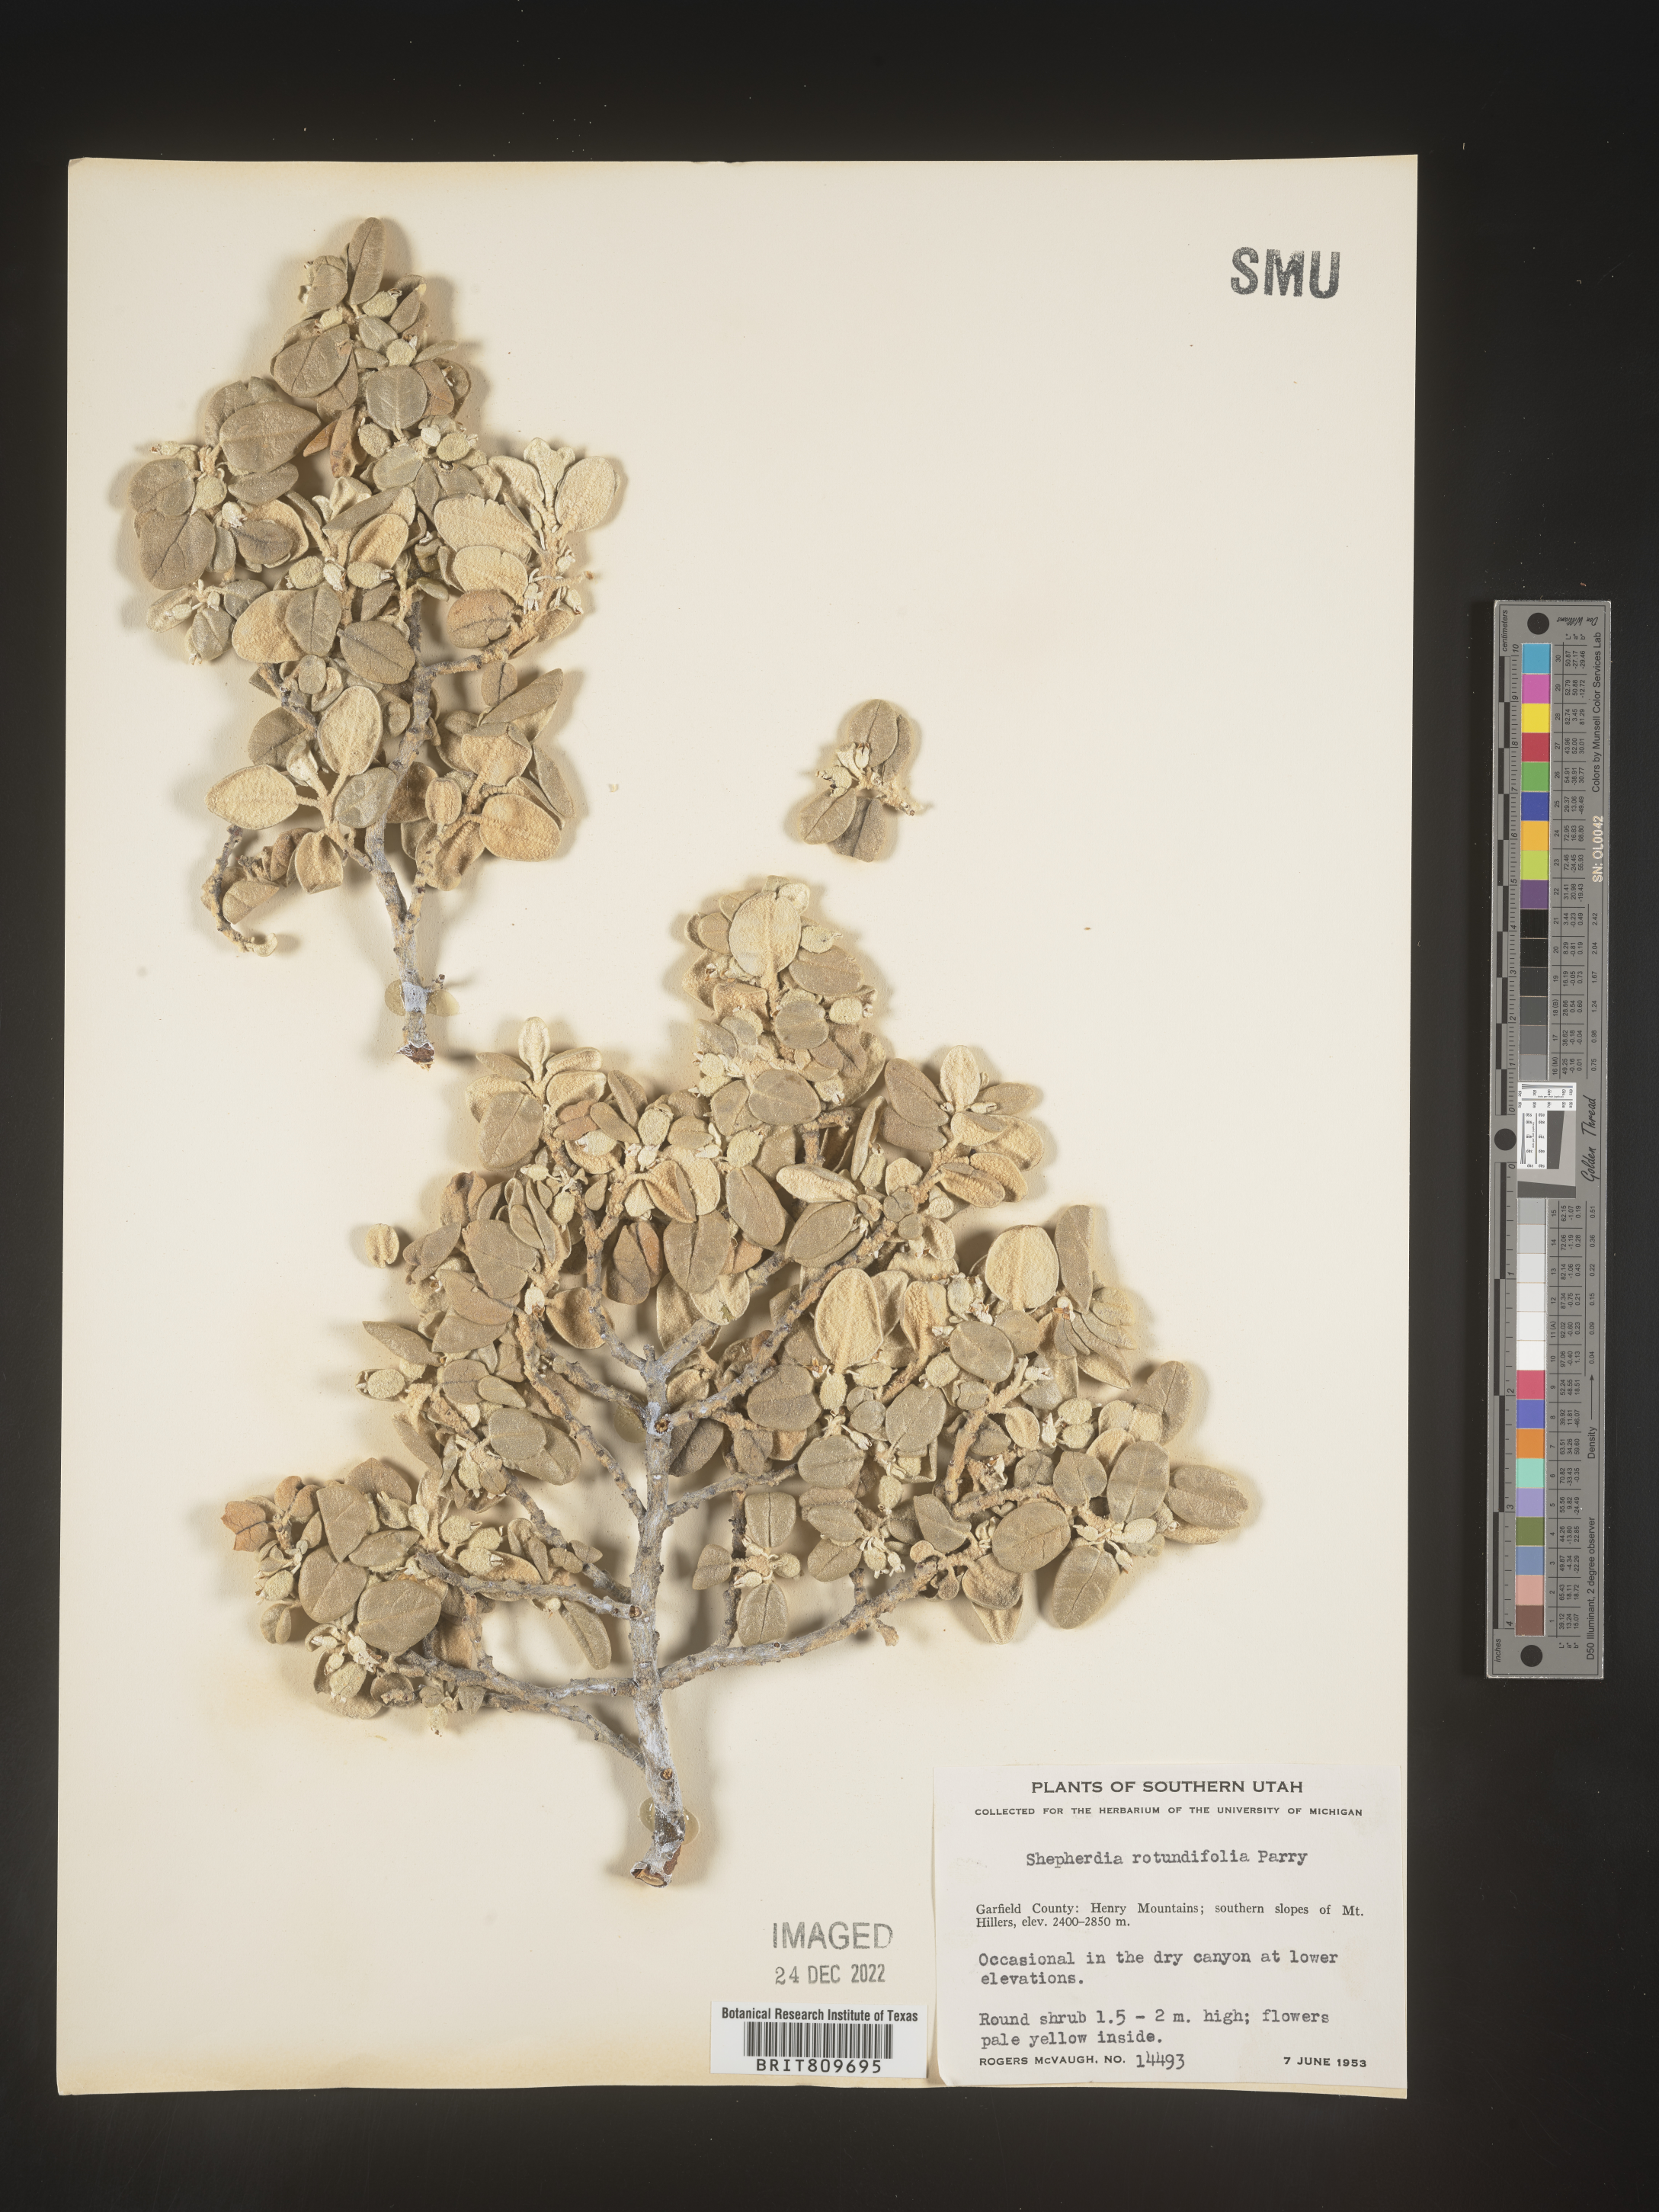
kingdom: Plantae
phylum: Tracheophyta
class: Magnoliopsida
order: Rosales
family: Elaeagnaceae
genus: Shepherdia
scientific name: Shepherdia rotundifolia
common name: Silverscale
